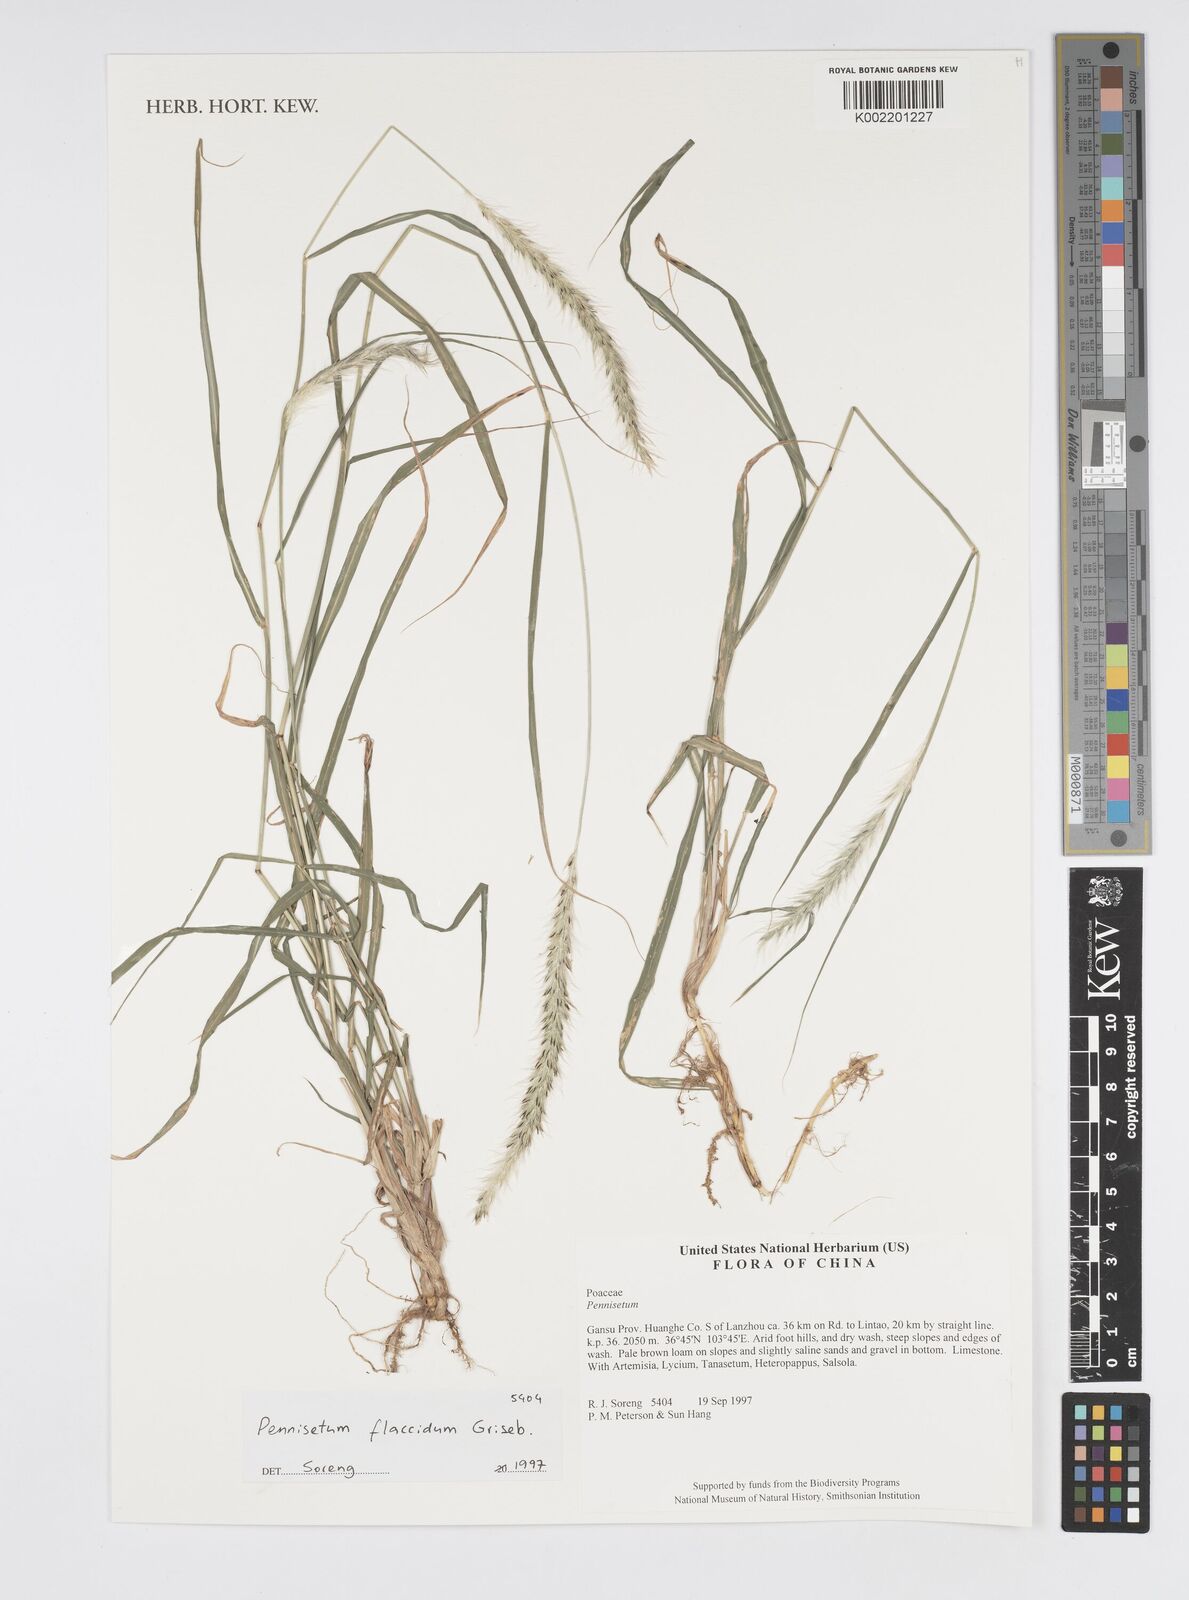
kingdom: Plantae
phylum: Tracheophyta
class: Liliopsida
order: Poales
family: Poaceae
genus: Cenchrus
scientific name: Cenchrus flaccidus
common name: Flaccid grass
